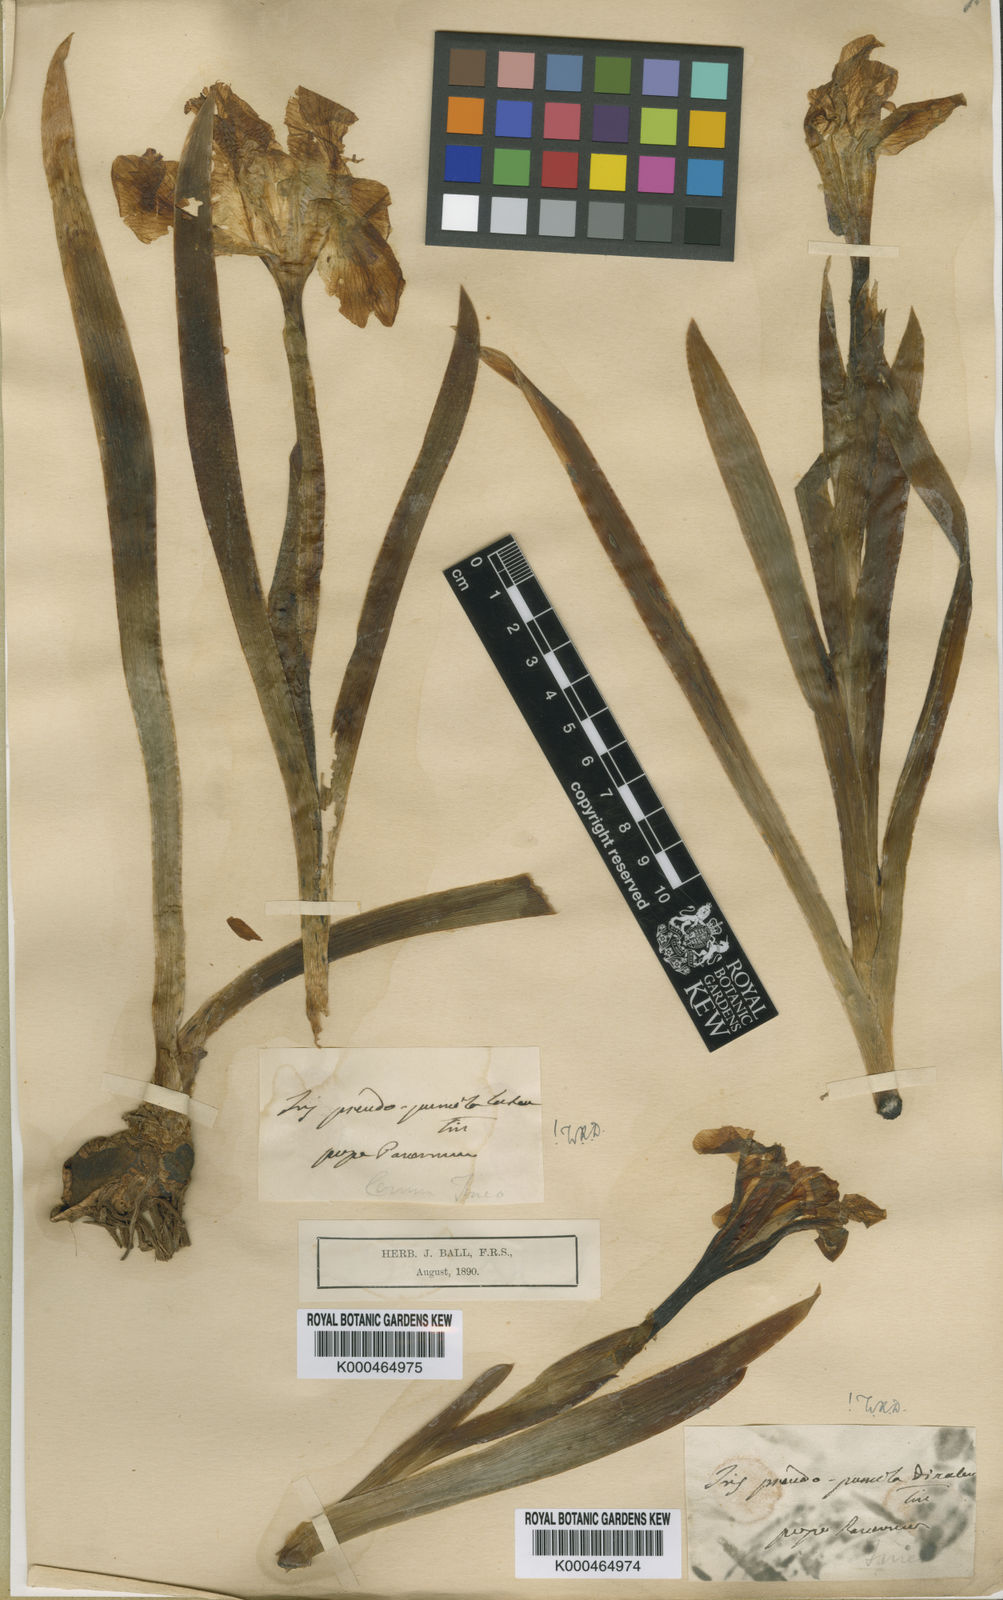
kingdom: Plantae
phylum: Tracheophyta
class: Liliopsida
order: Asparagales
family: Iridaceae
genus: Iris
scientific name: Iris pseudopumila
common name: Southern dwarf iris
